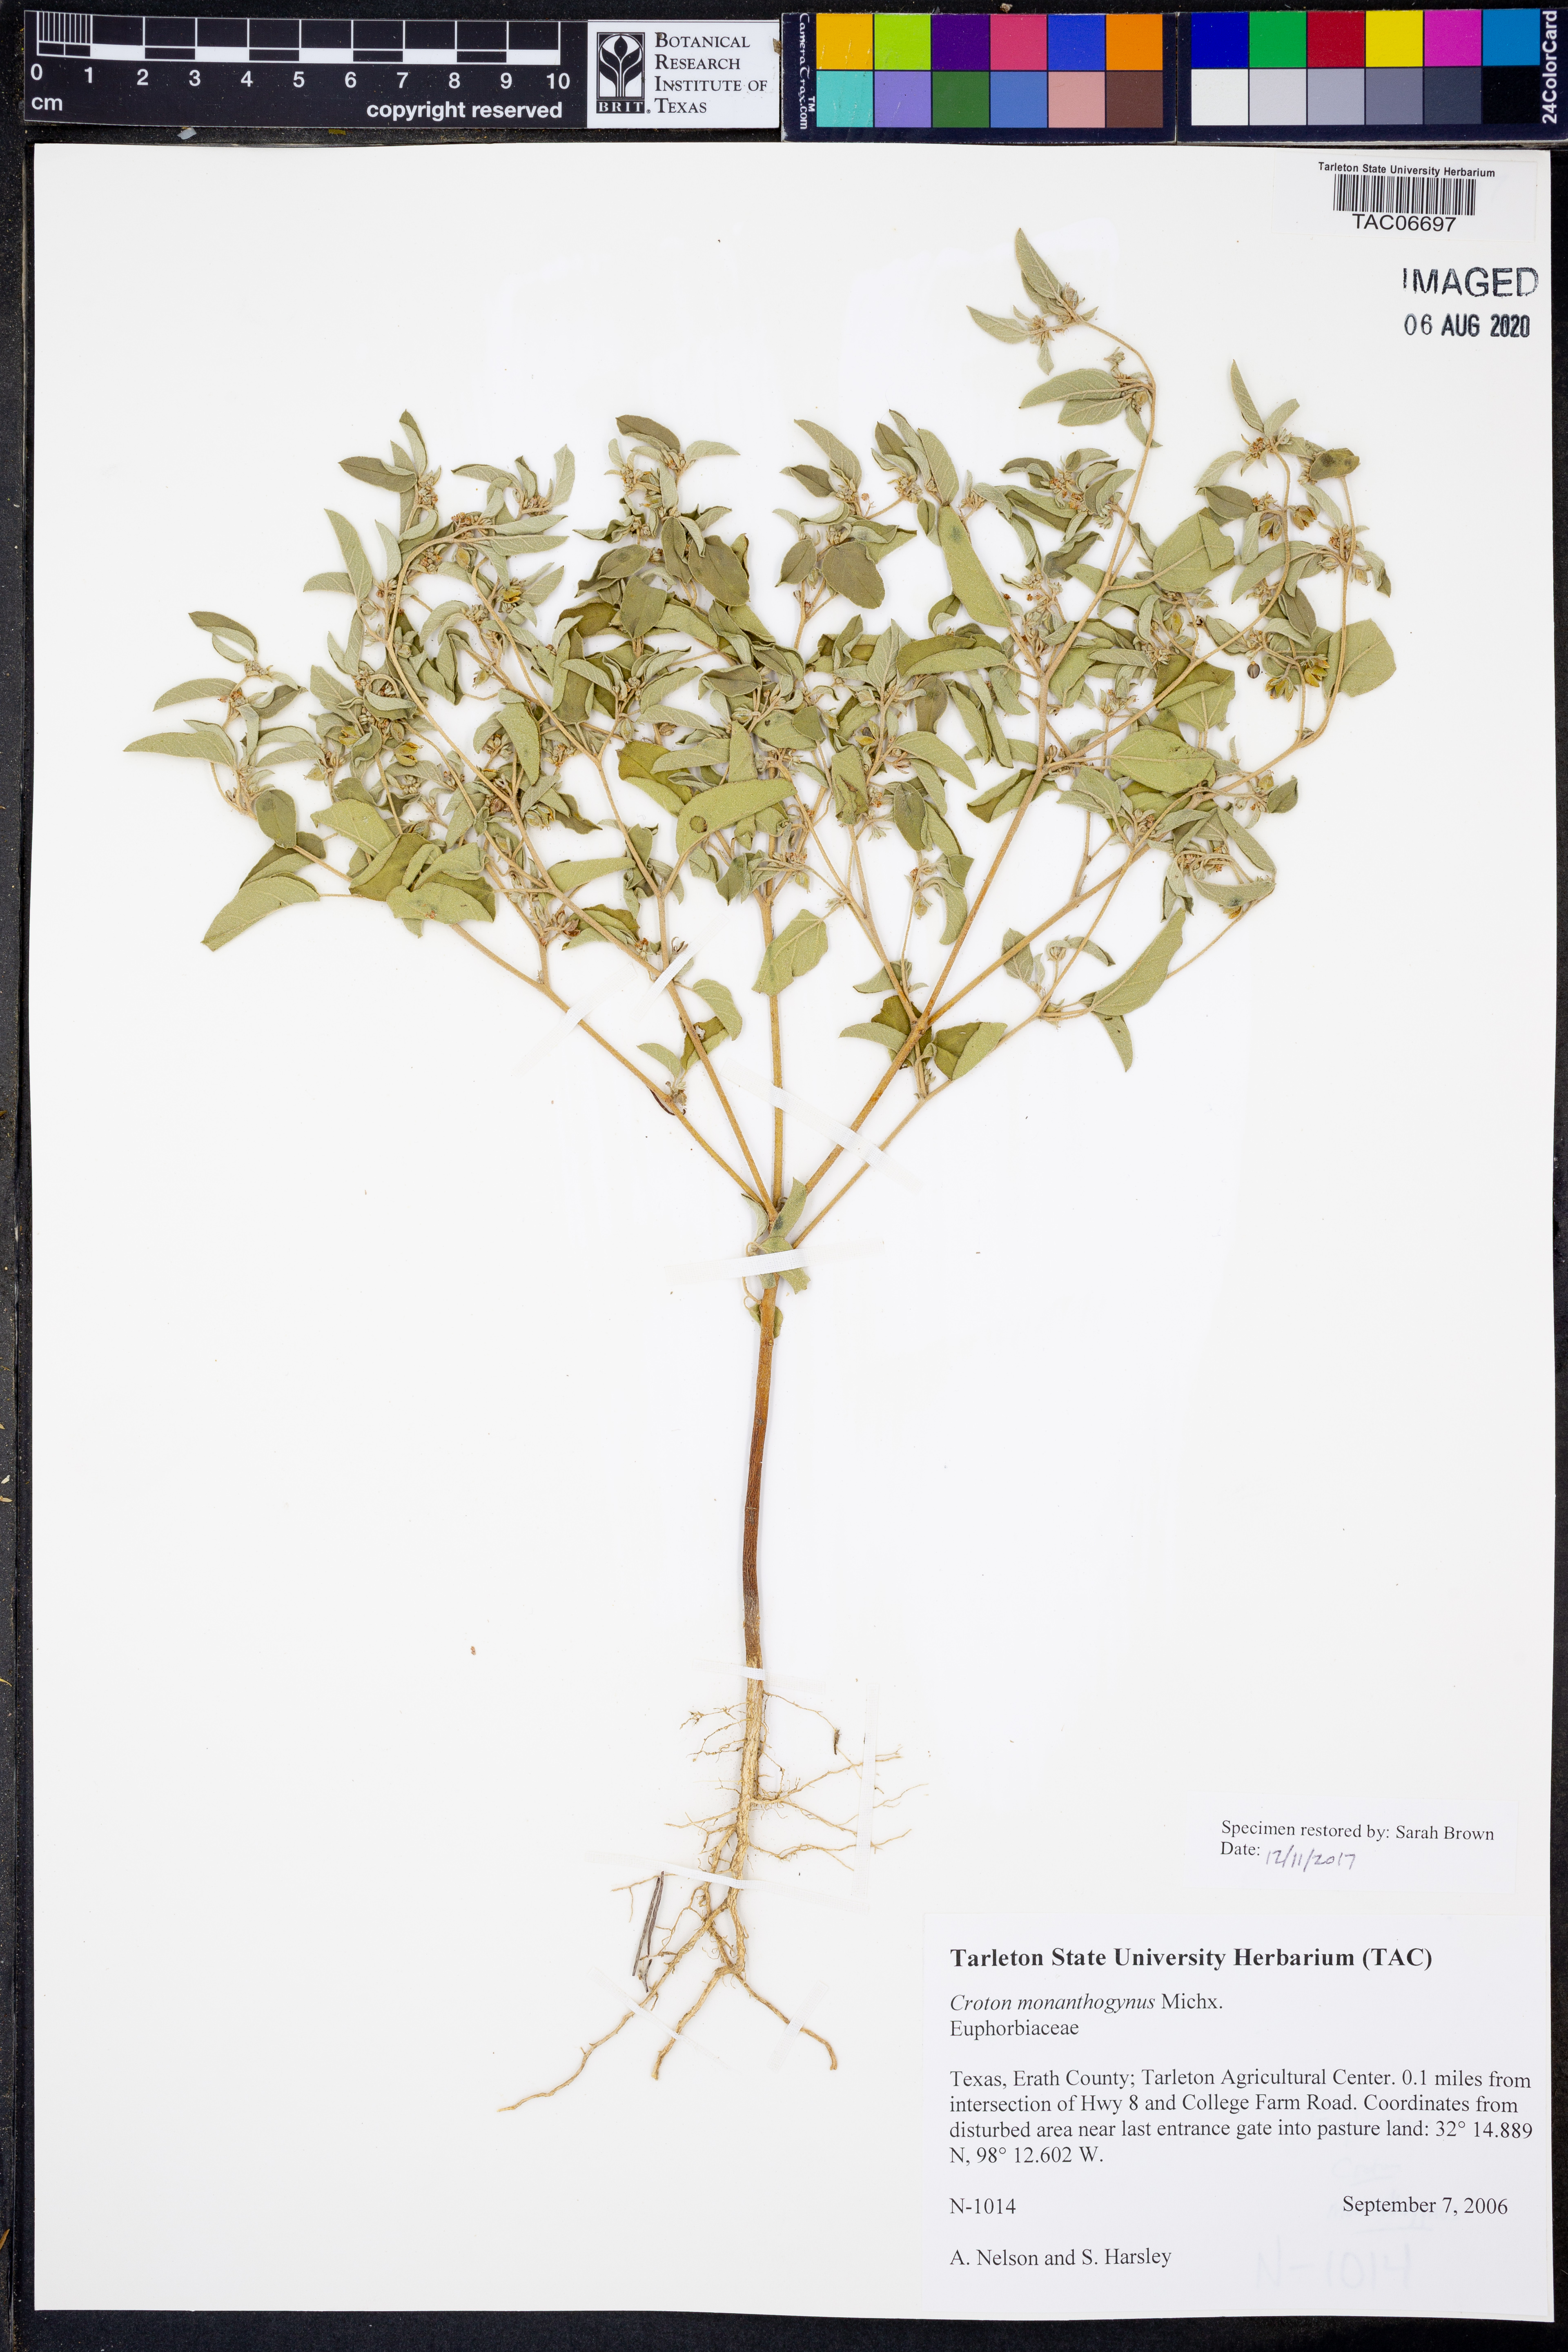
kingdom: Plantae
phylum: Tracheophyta
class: Magnoliopsida
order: Malpighiales
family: Euphorbiaceae
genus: Croton
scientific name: Croton monanthogynus
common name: One-seed croton
